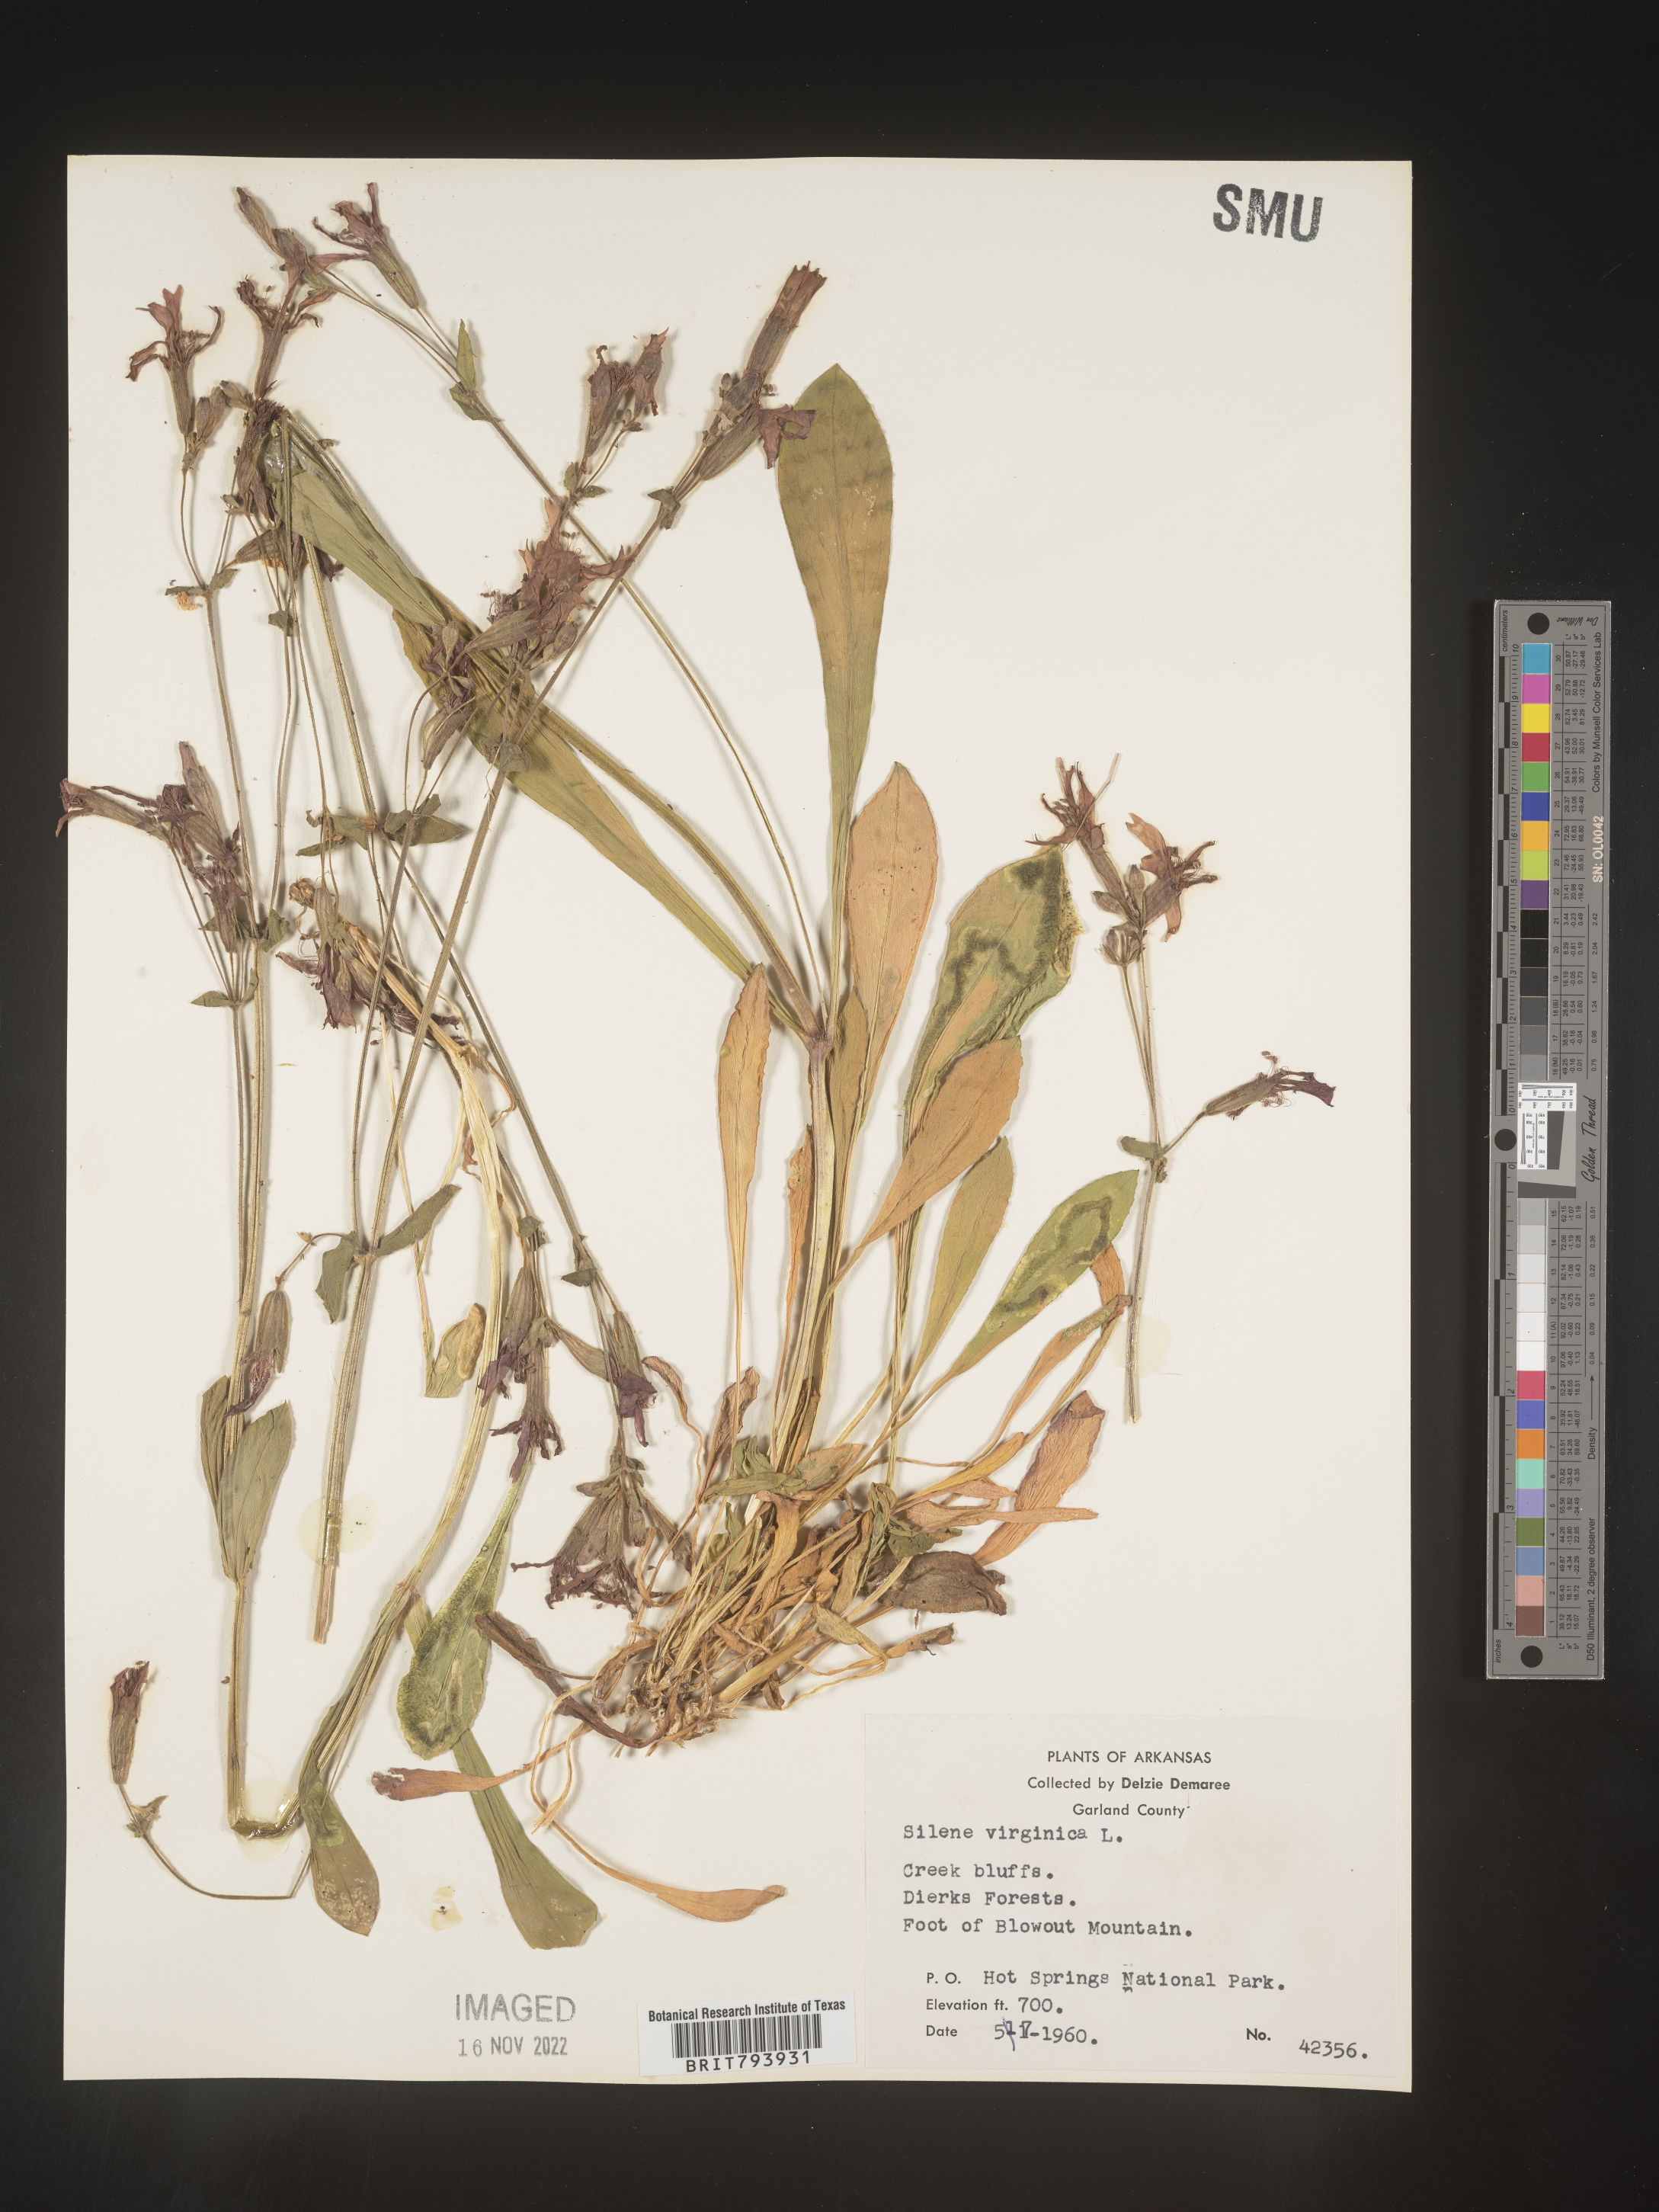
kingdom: Plantae
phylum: Tracheophyta
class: Magnoliopsida
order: Caryophyllales
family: Caryophyllaceae
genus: Silene
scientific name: Silene virginica
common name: Fire-pink
